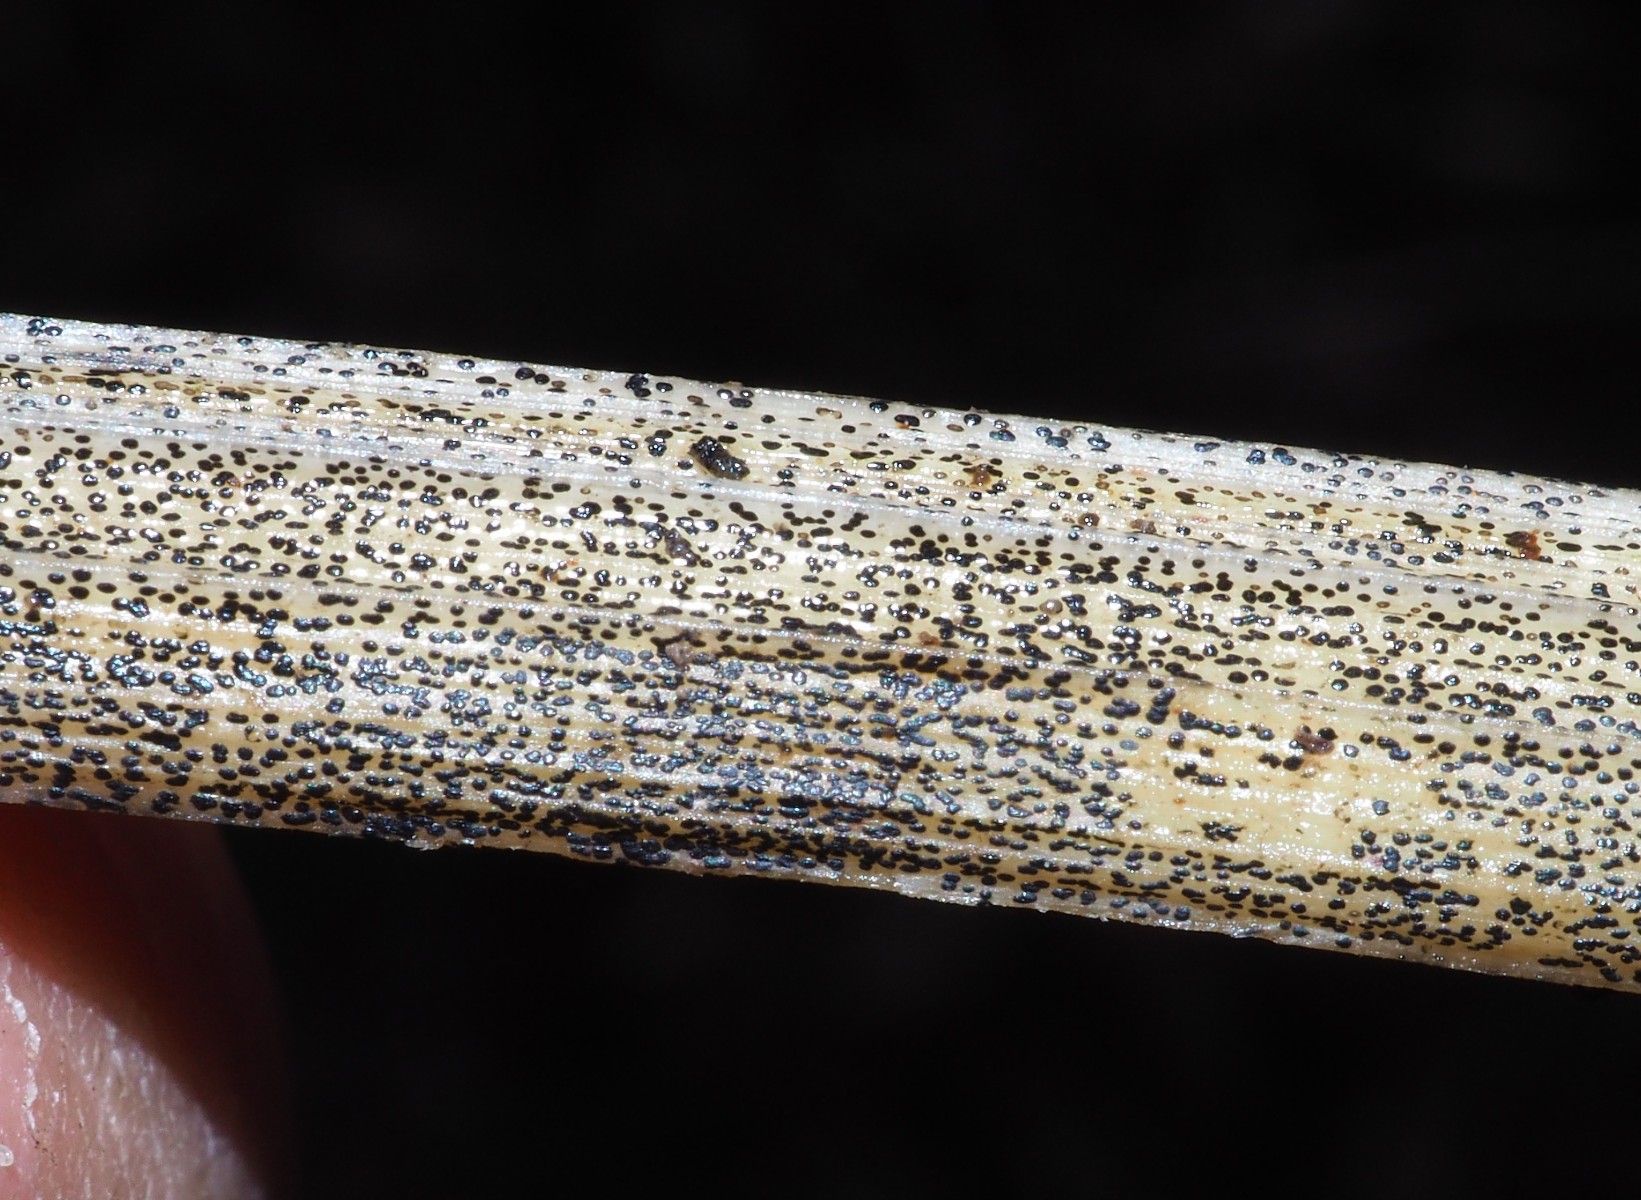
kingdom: Fungi
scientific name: Fungi
